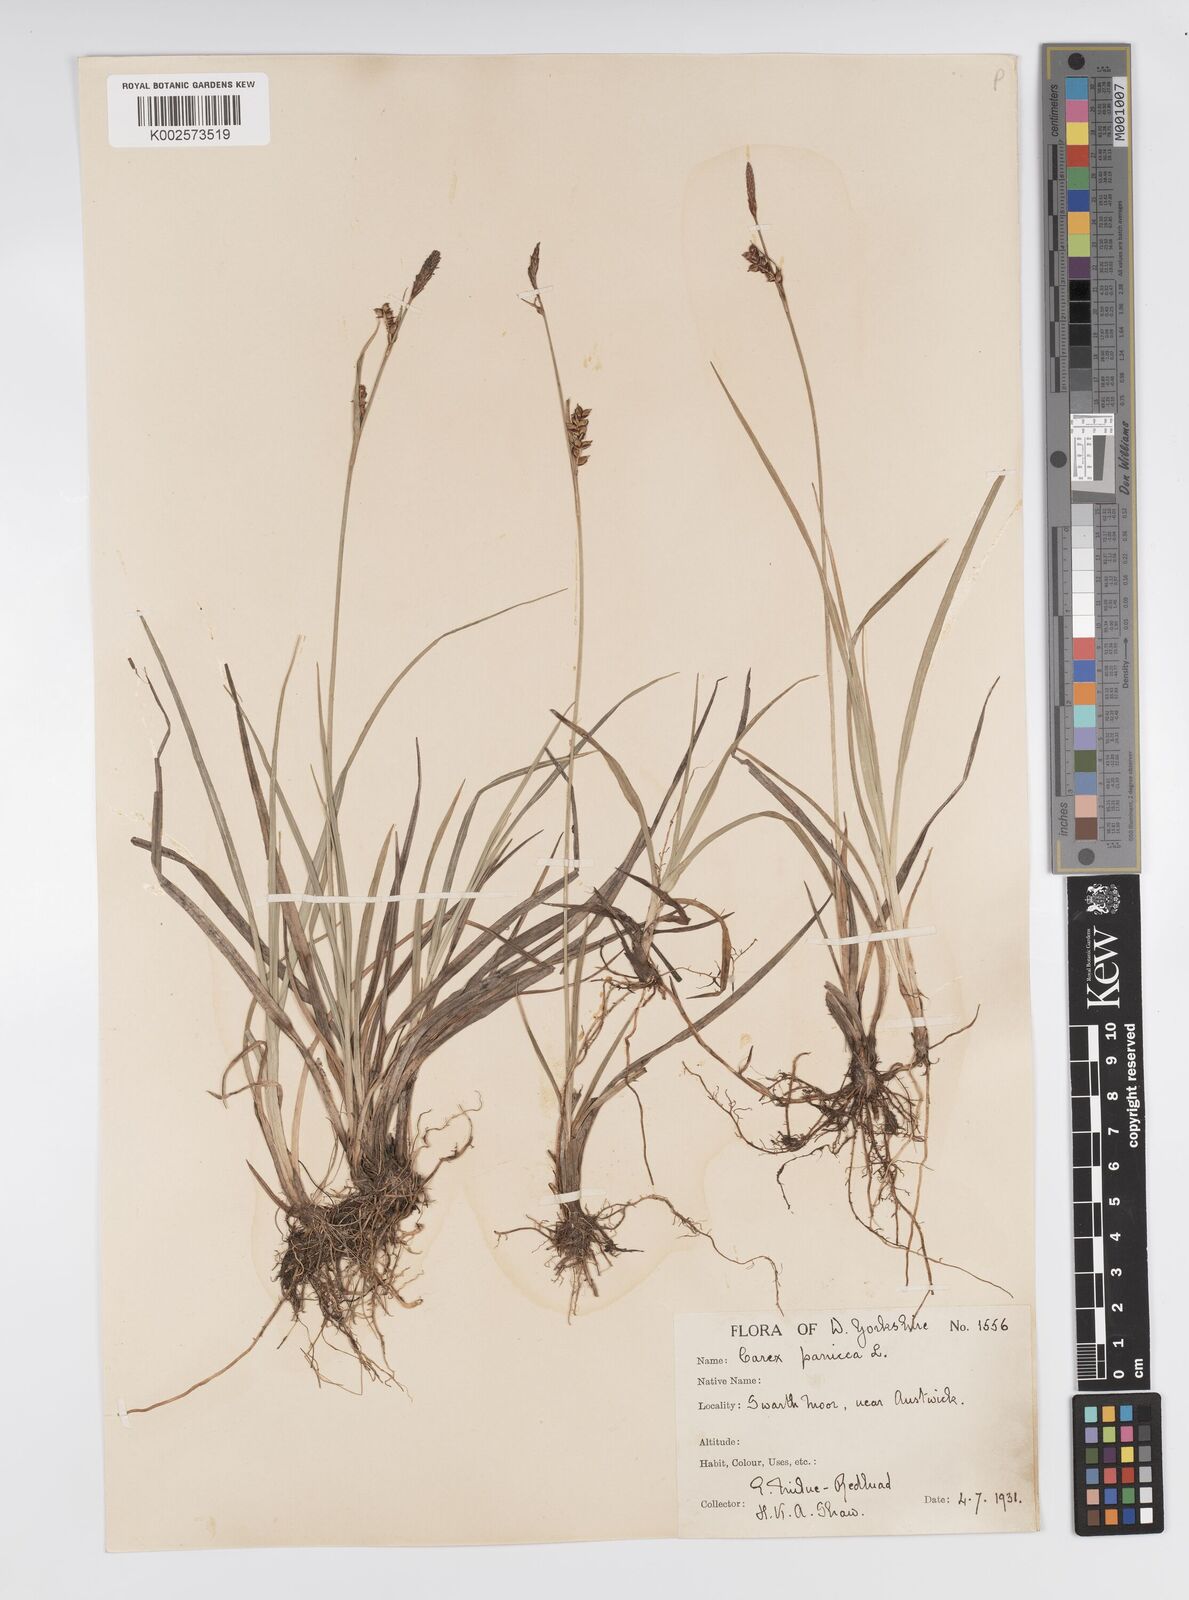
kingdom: Plantae
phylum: Tracheophyta
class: Liliopsida
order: Poales
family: Cyperaceae
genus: Carex
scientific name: Carex panicea
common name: Carnation sedge
